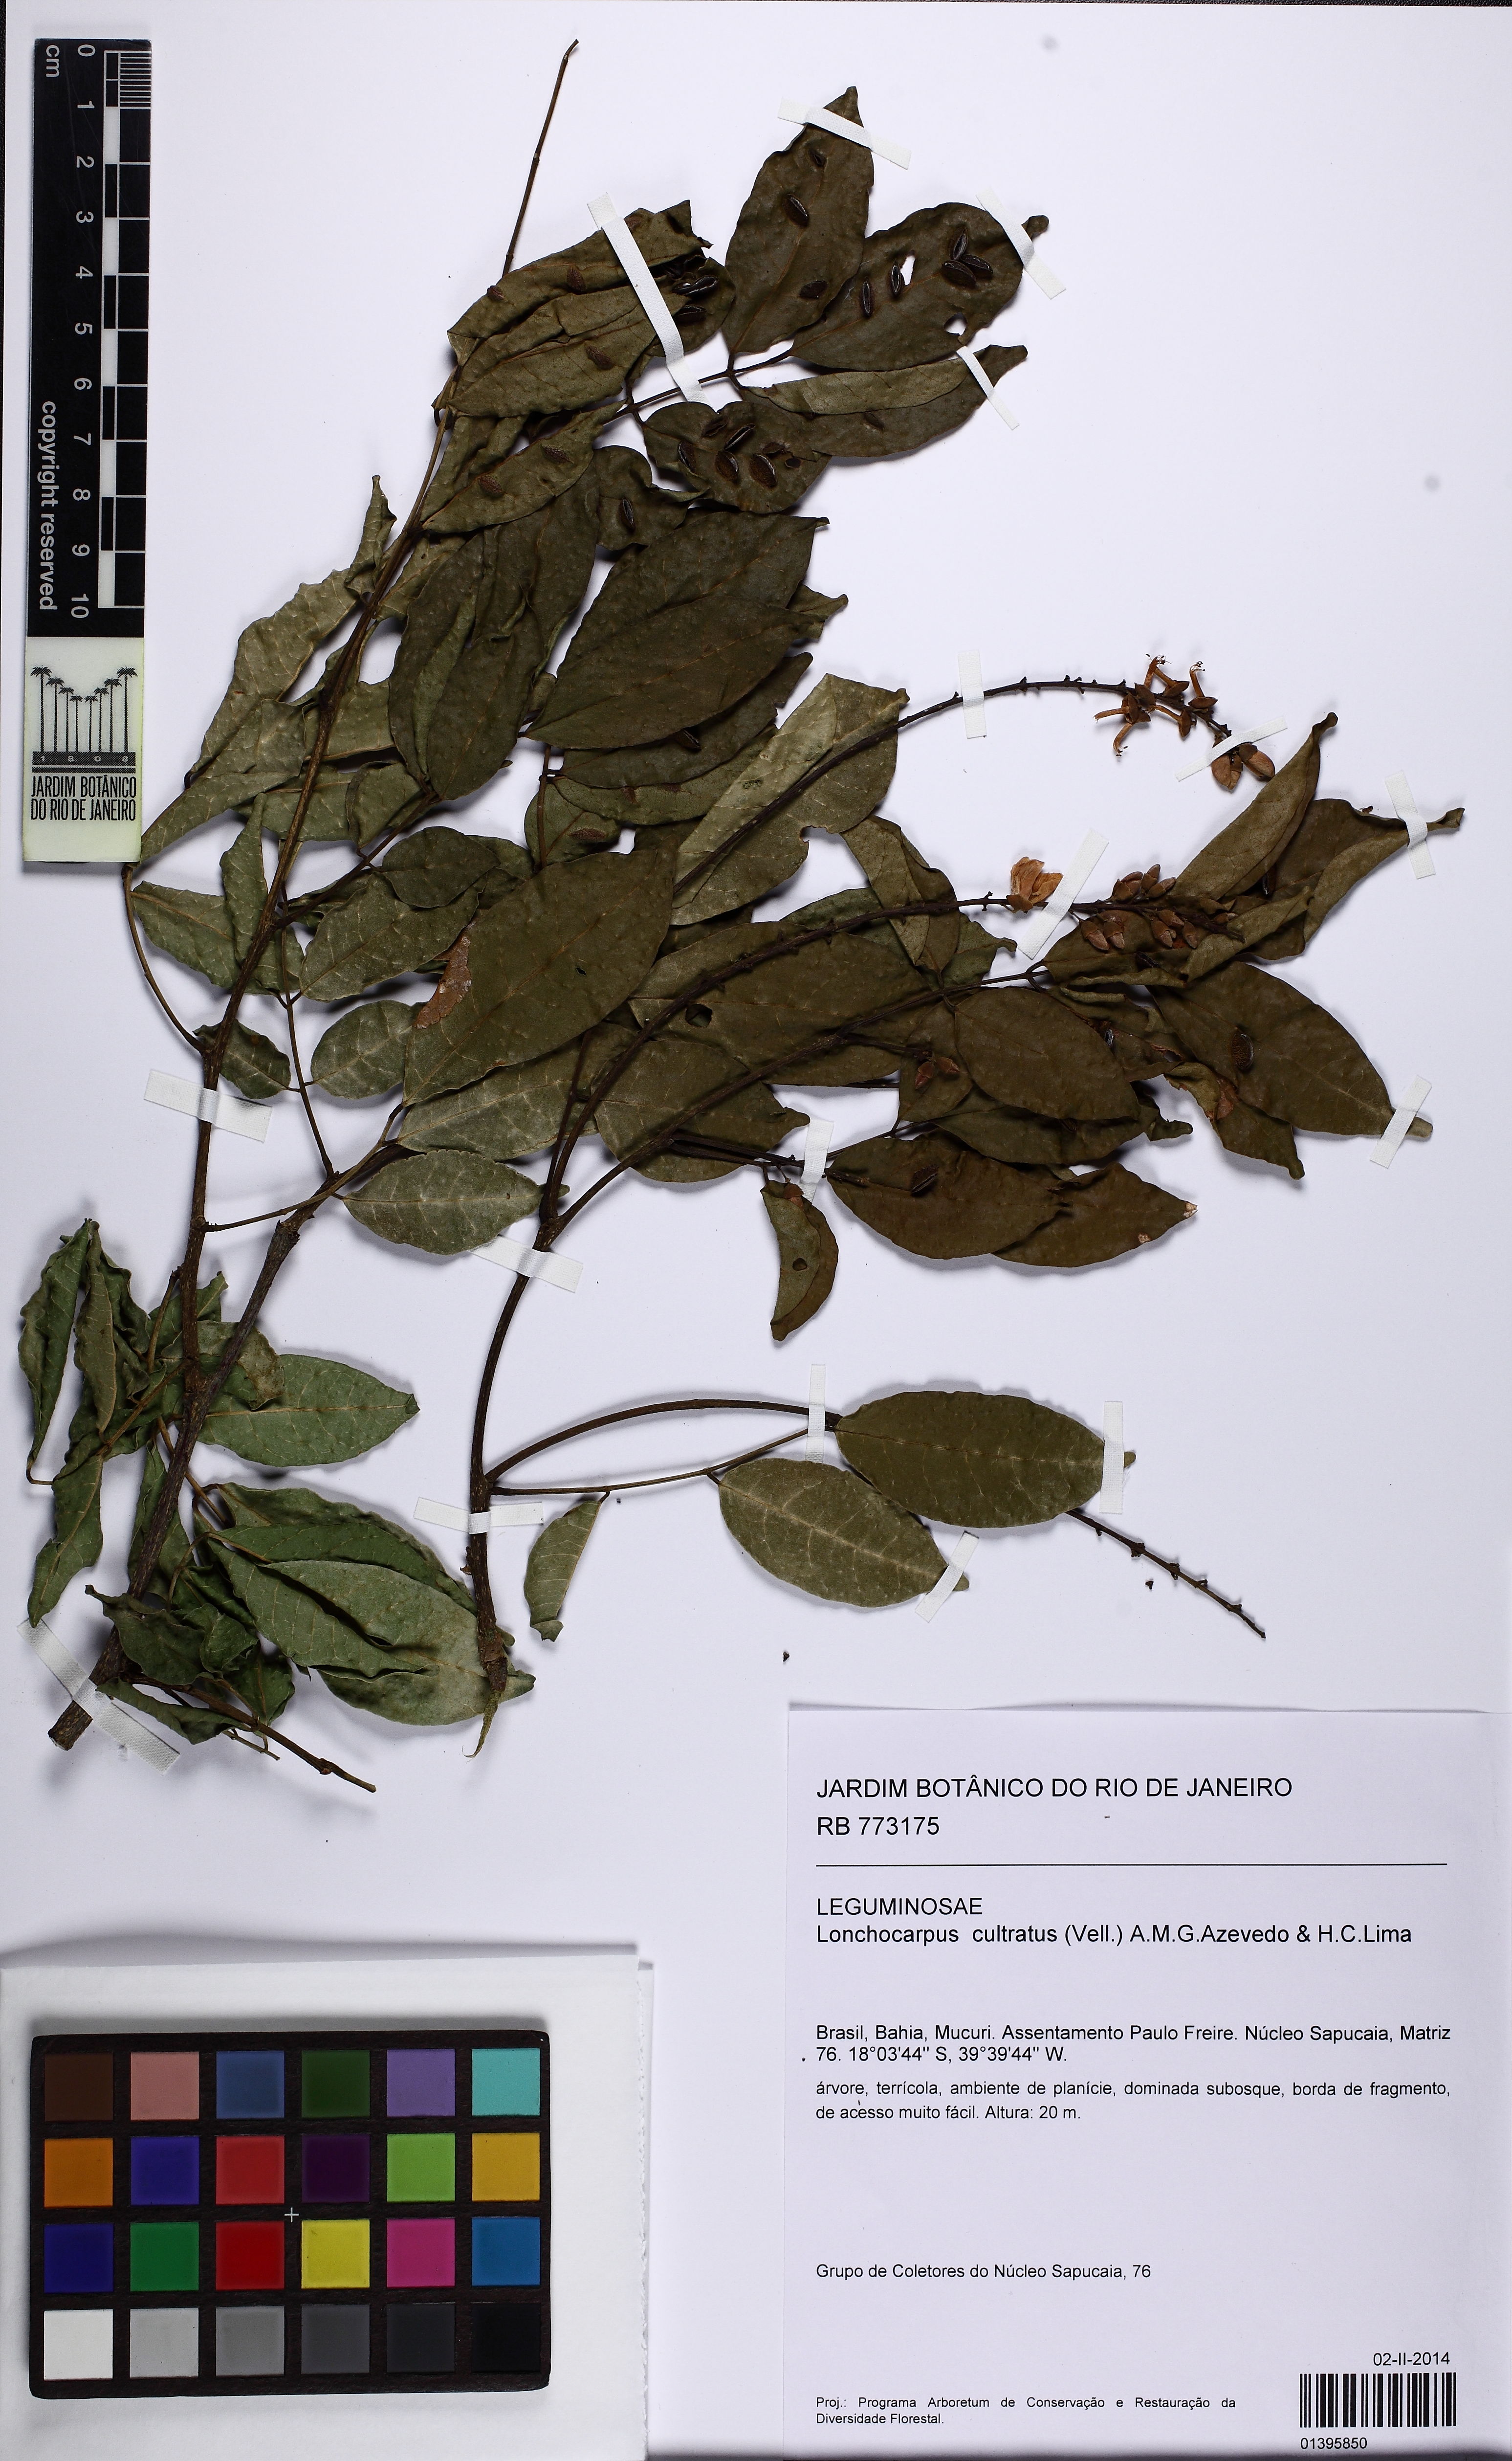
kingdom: Plantae
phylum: Tracheophyta
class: Magnoliopsida
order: Fabales
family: Fabaceae
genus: Lonchocarpus
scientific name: Lonchocarpus cultratus
